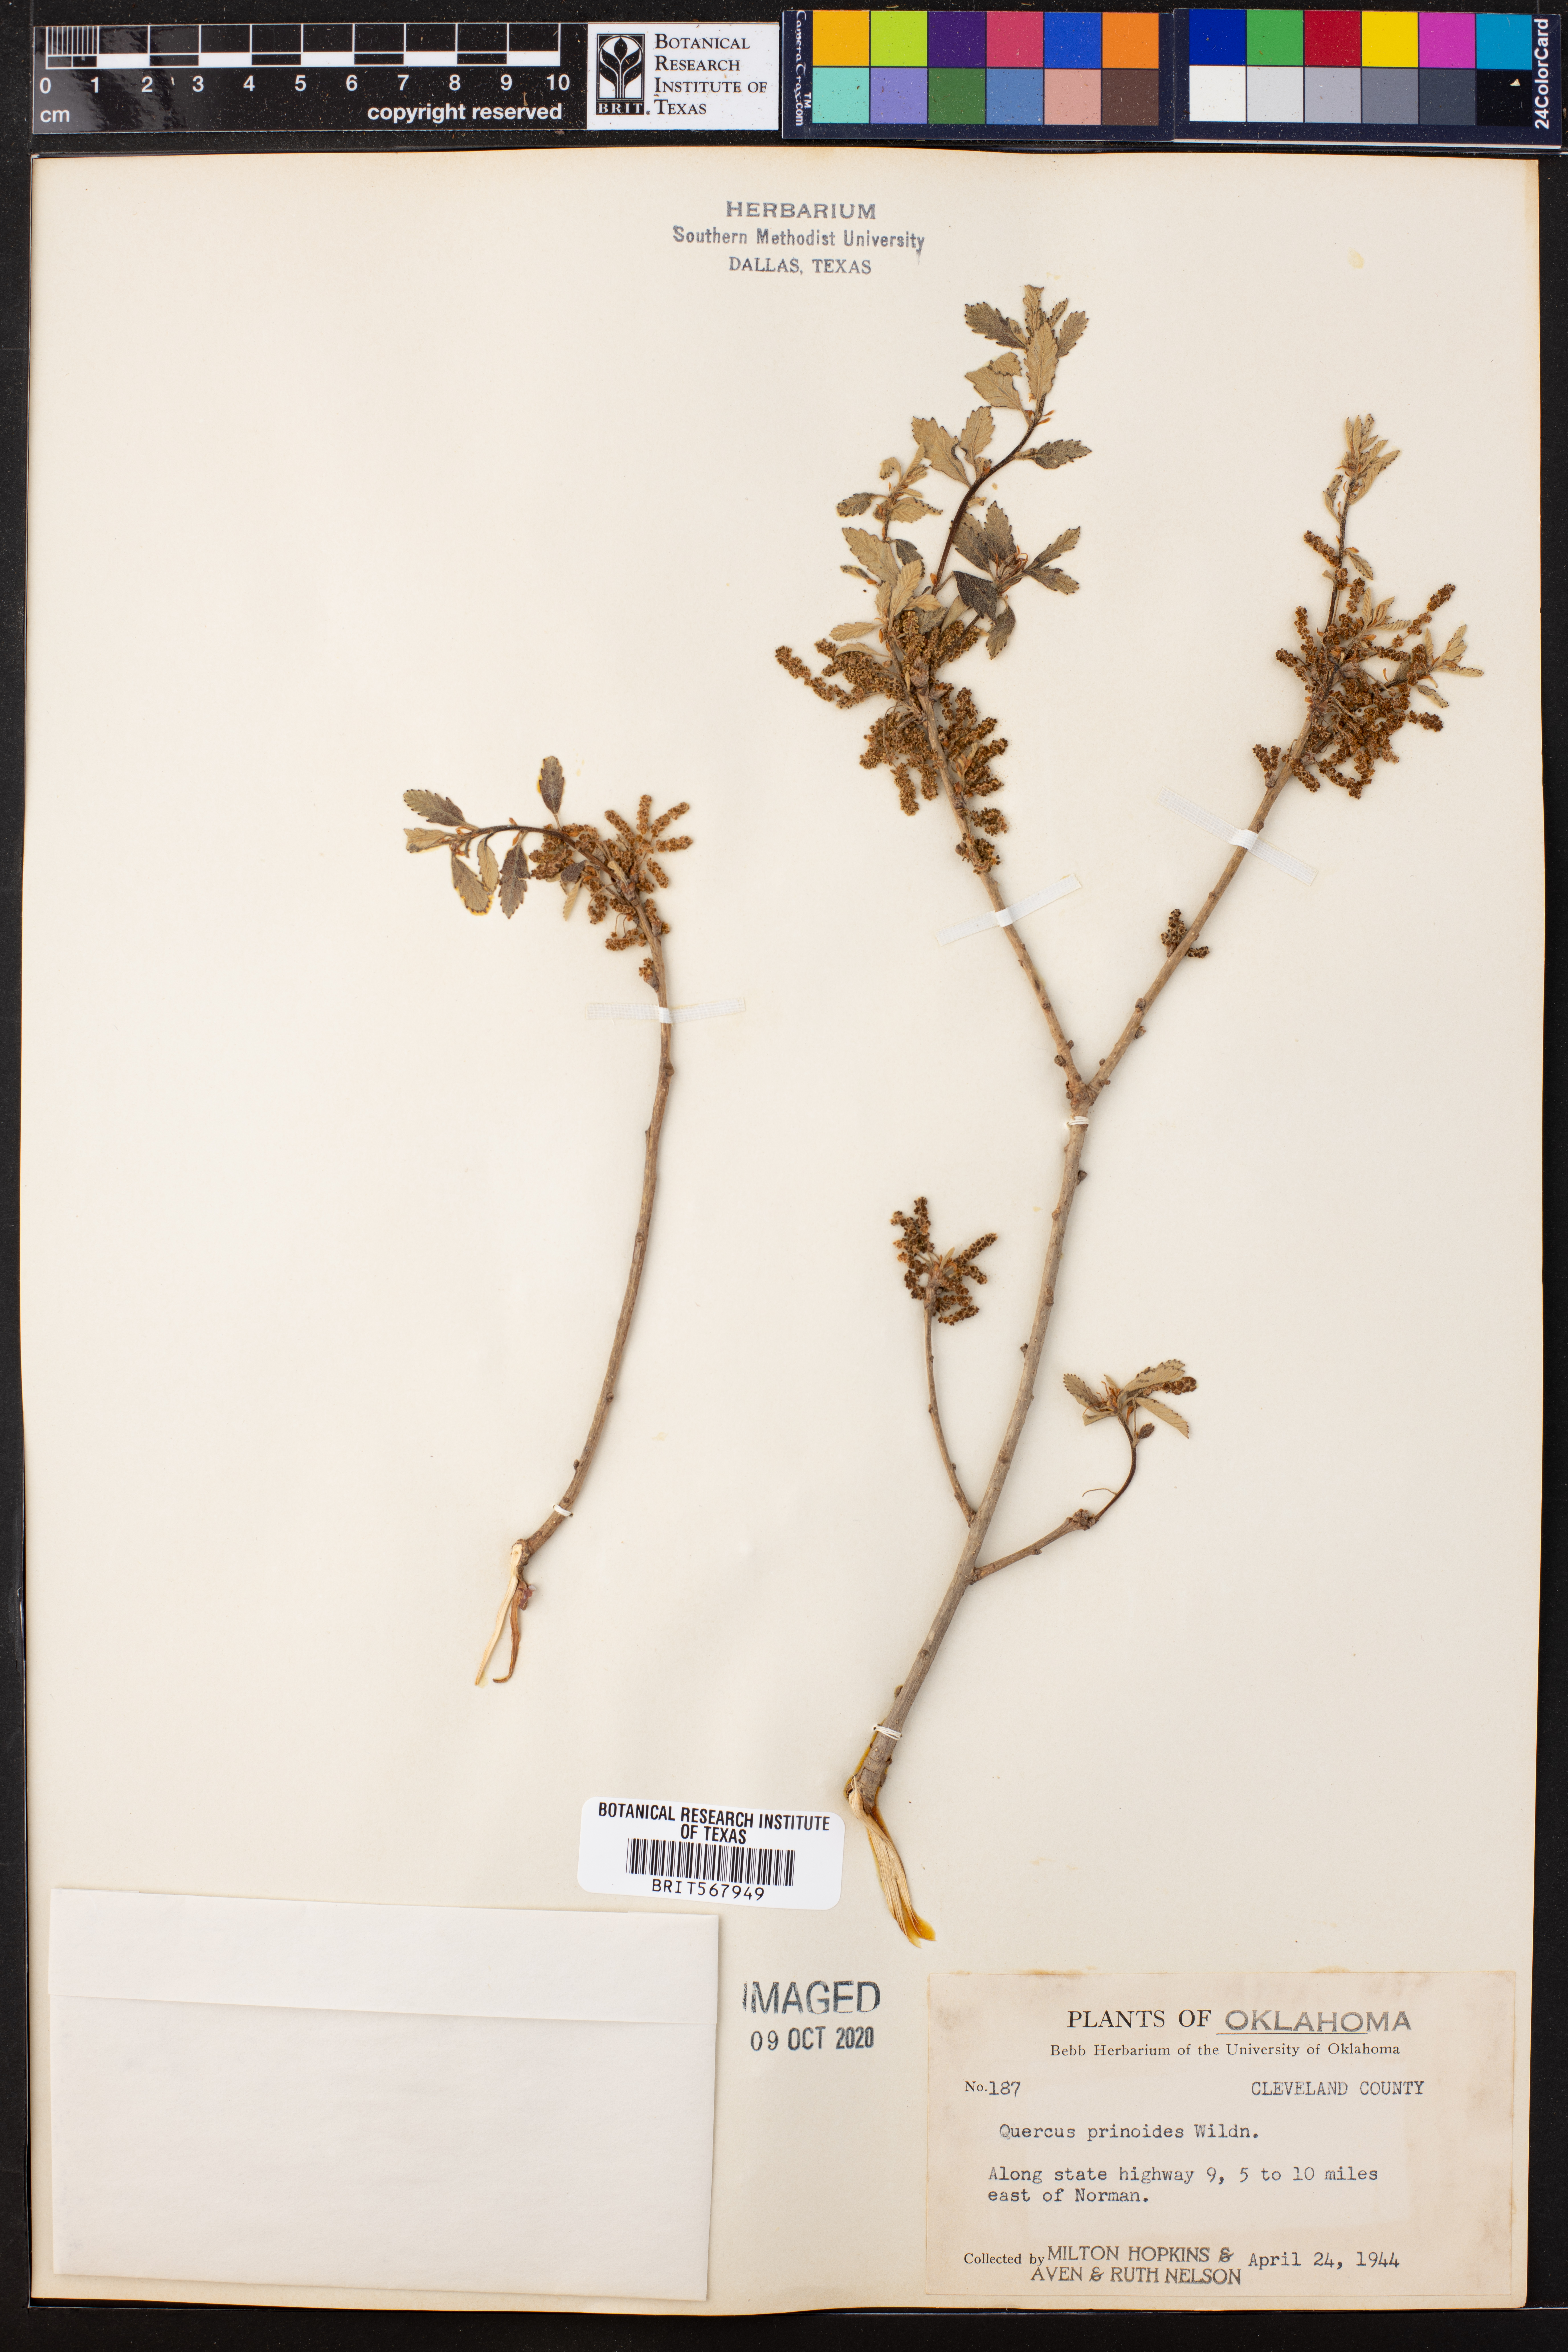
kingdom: Plantae
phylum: Tracheophyta
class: Magnoliopsida
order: Fagales
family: Fagaceae
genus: Quercus
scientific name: Quercus prinoides
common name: Dwarf chinkapin oak
